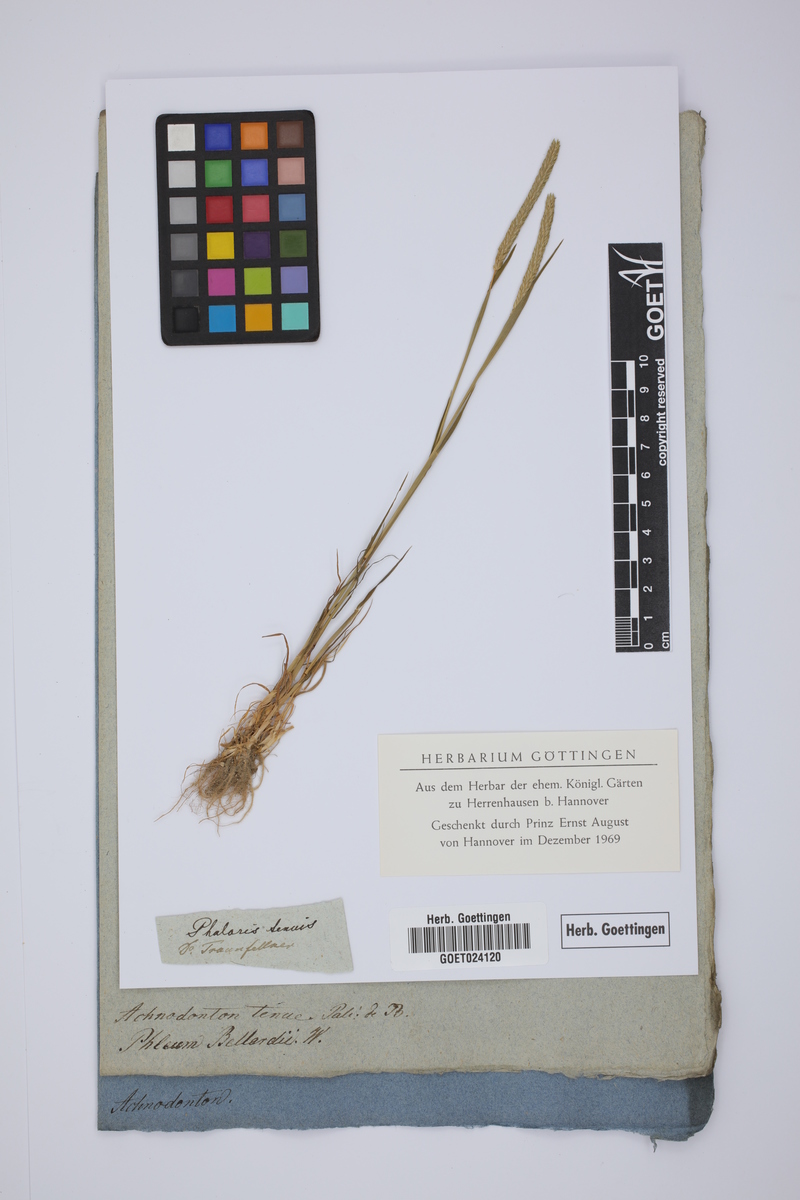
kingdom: Plantae
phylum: Tracheophyta
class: Liliopsida
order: Poales
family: Poaceae
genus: Phleum
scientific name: Phleum subulatum
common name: Italian timothy
